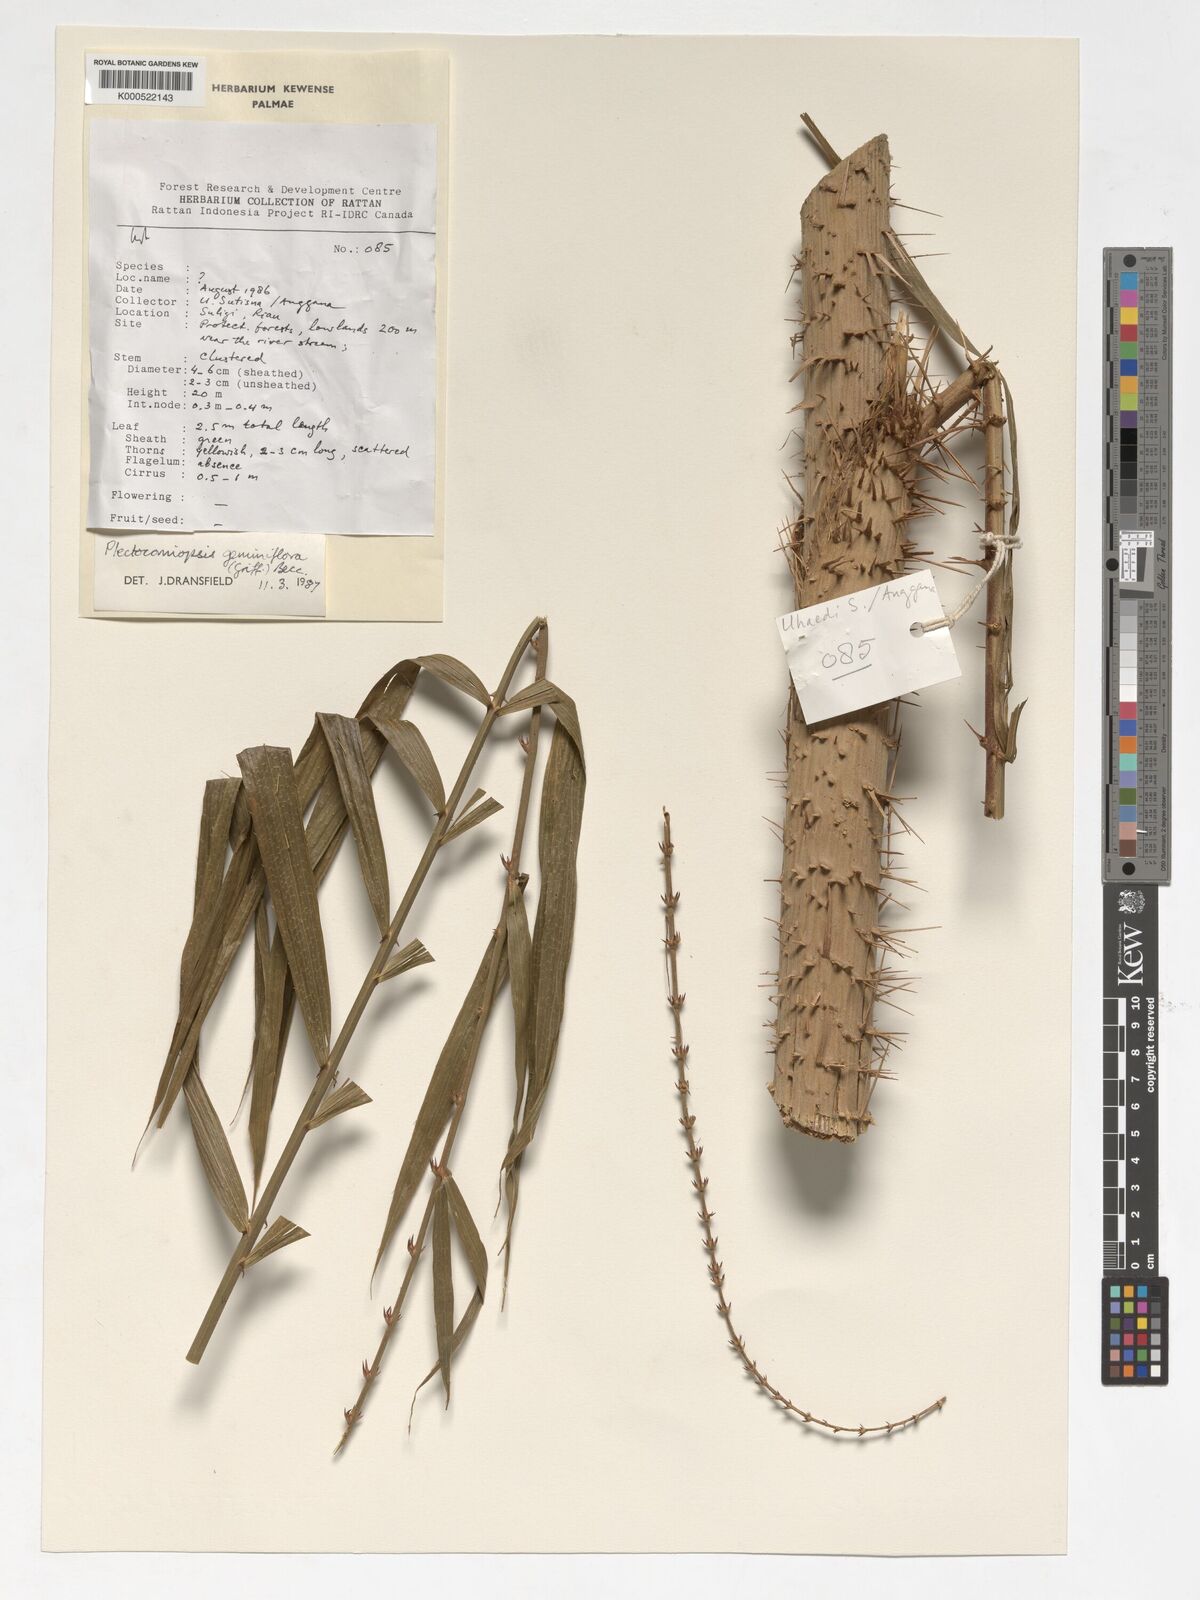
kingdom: Plantae
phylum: Tracheophyta
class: Liliopsida
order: Arecales
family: Arecaceae
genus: Plectocomiopsis
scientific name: Plectocomiopsis geminiflora
